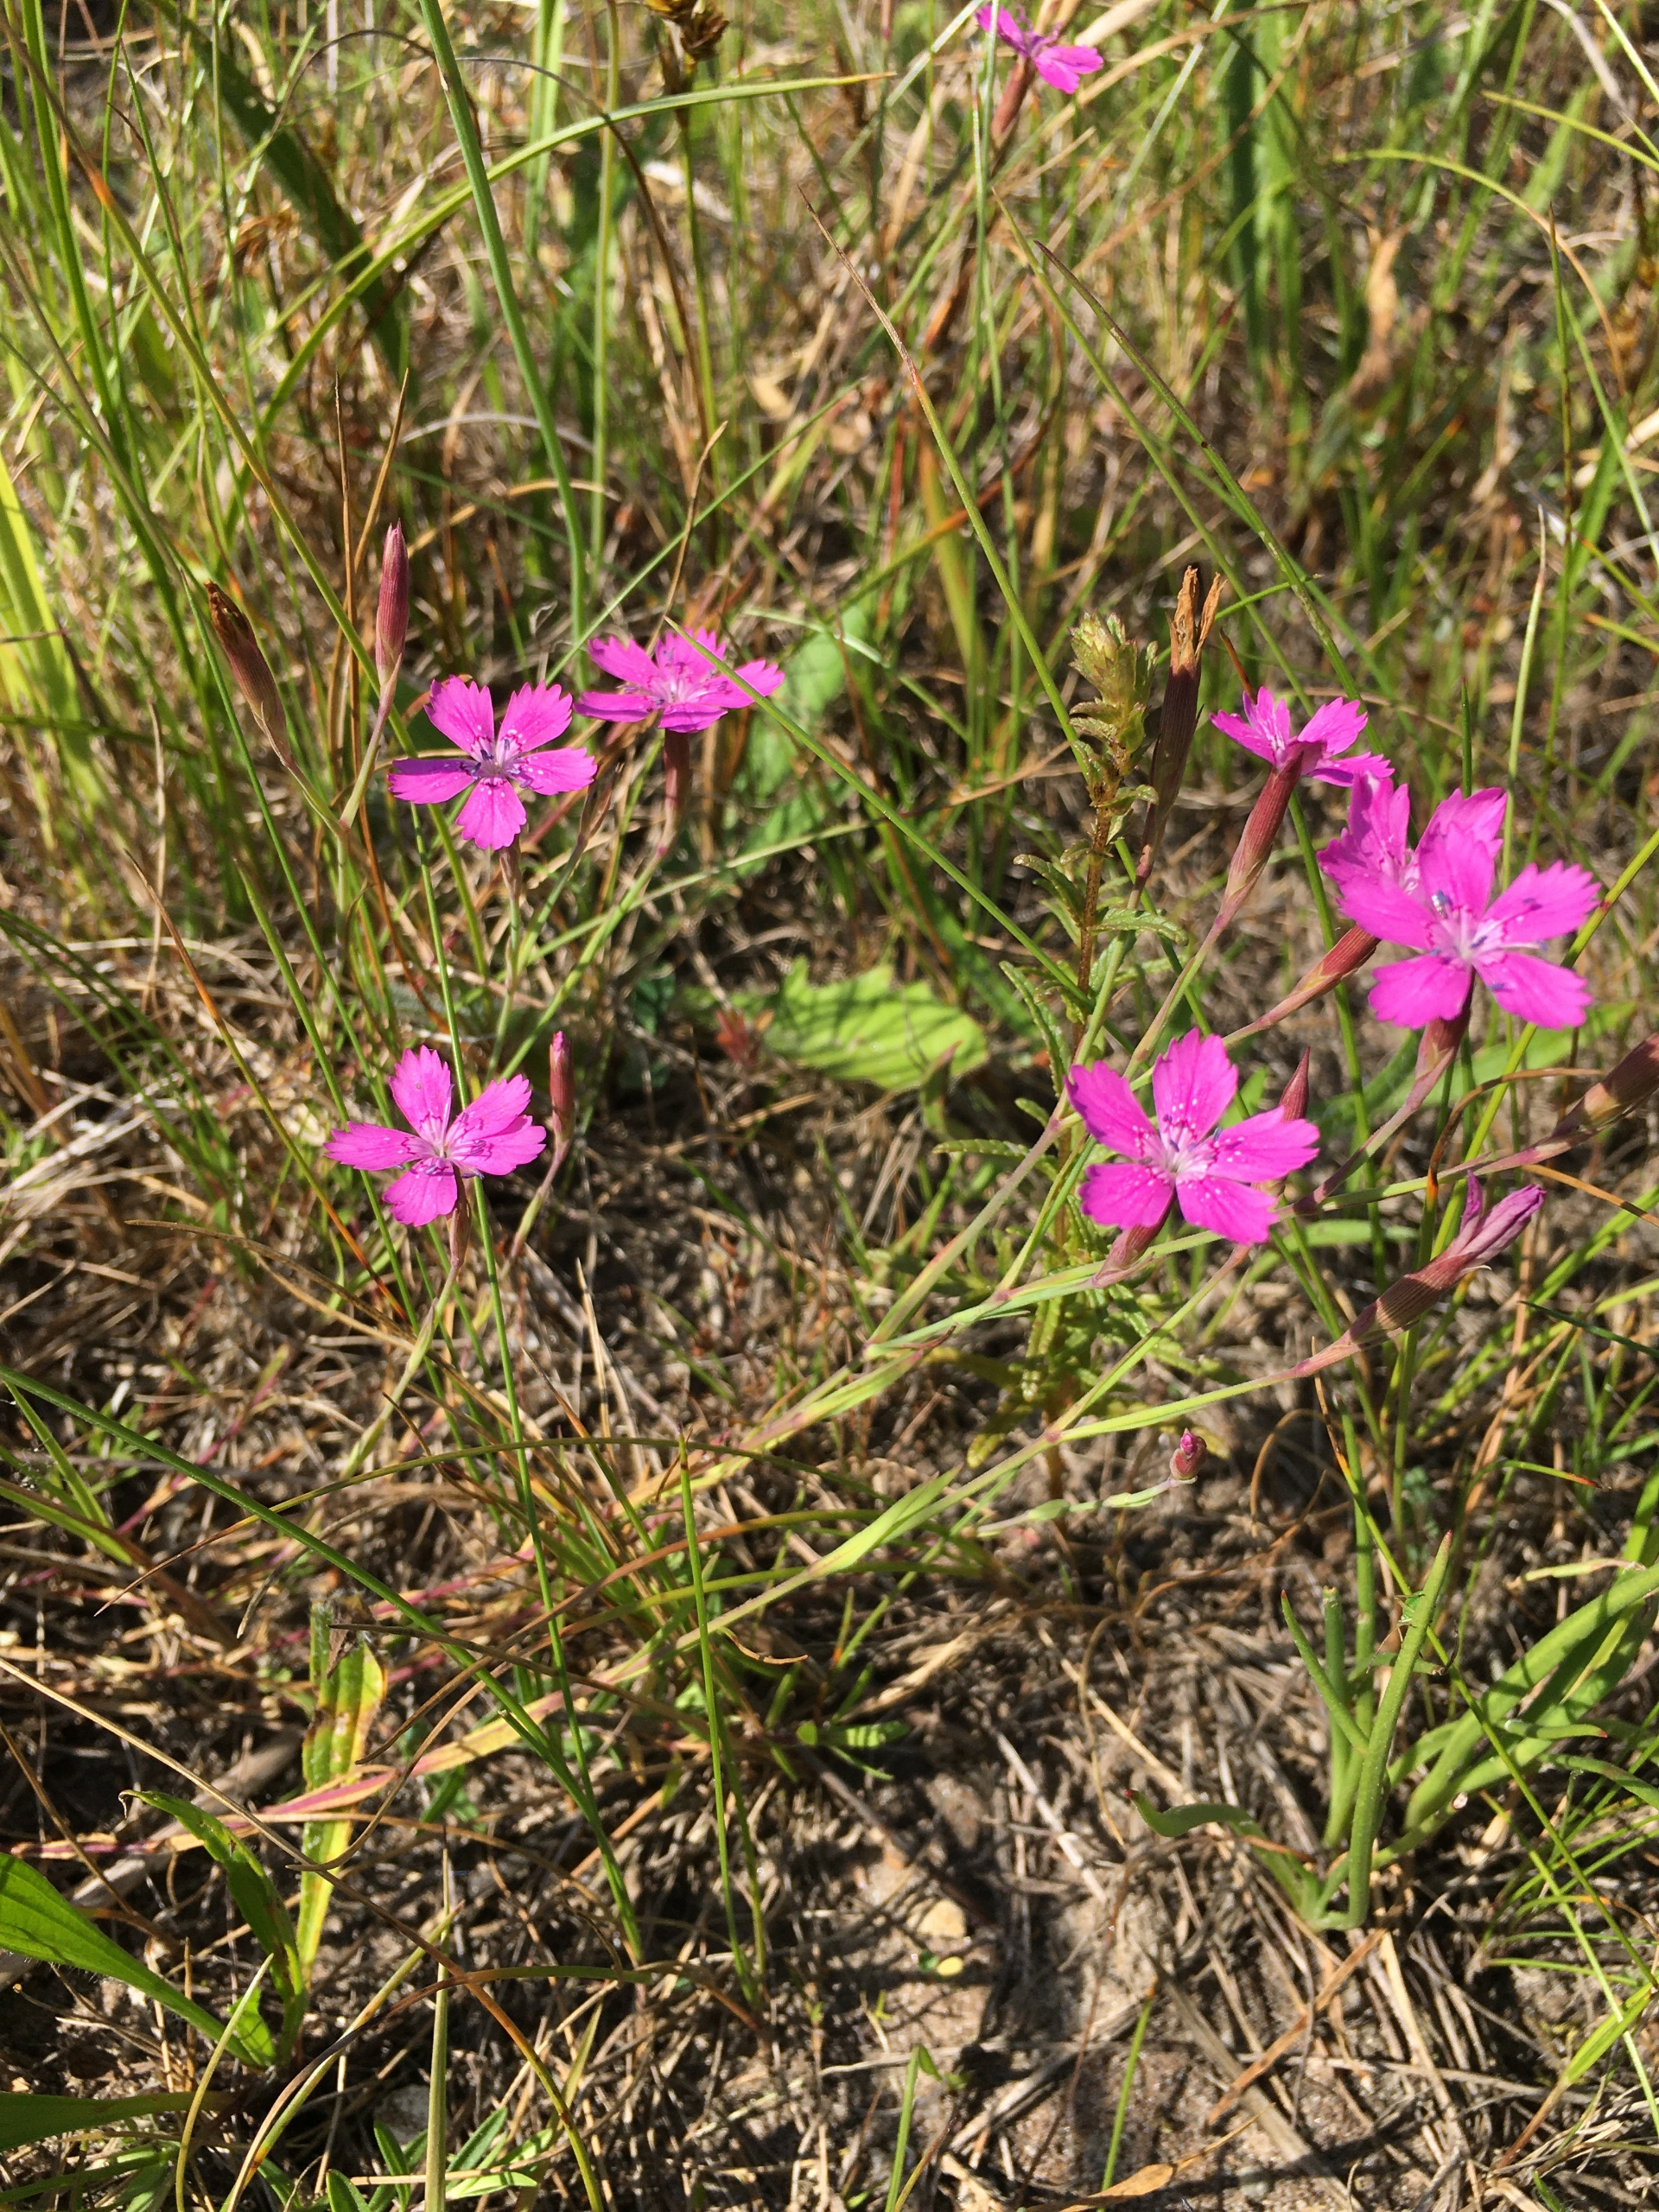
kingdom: Plantae
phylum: Tracheophyta
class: Magnoliopsida
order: Caryophyllales
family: Caryophyllaceae
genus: Dianthus
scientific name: Dianthus deltoides
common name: Bakke-nellike
